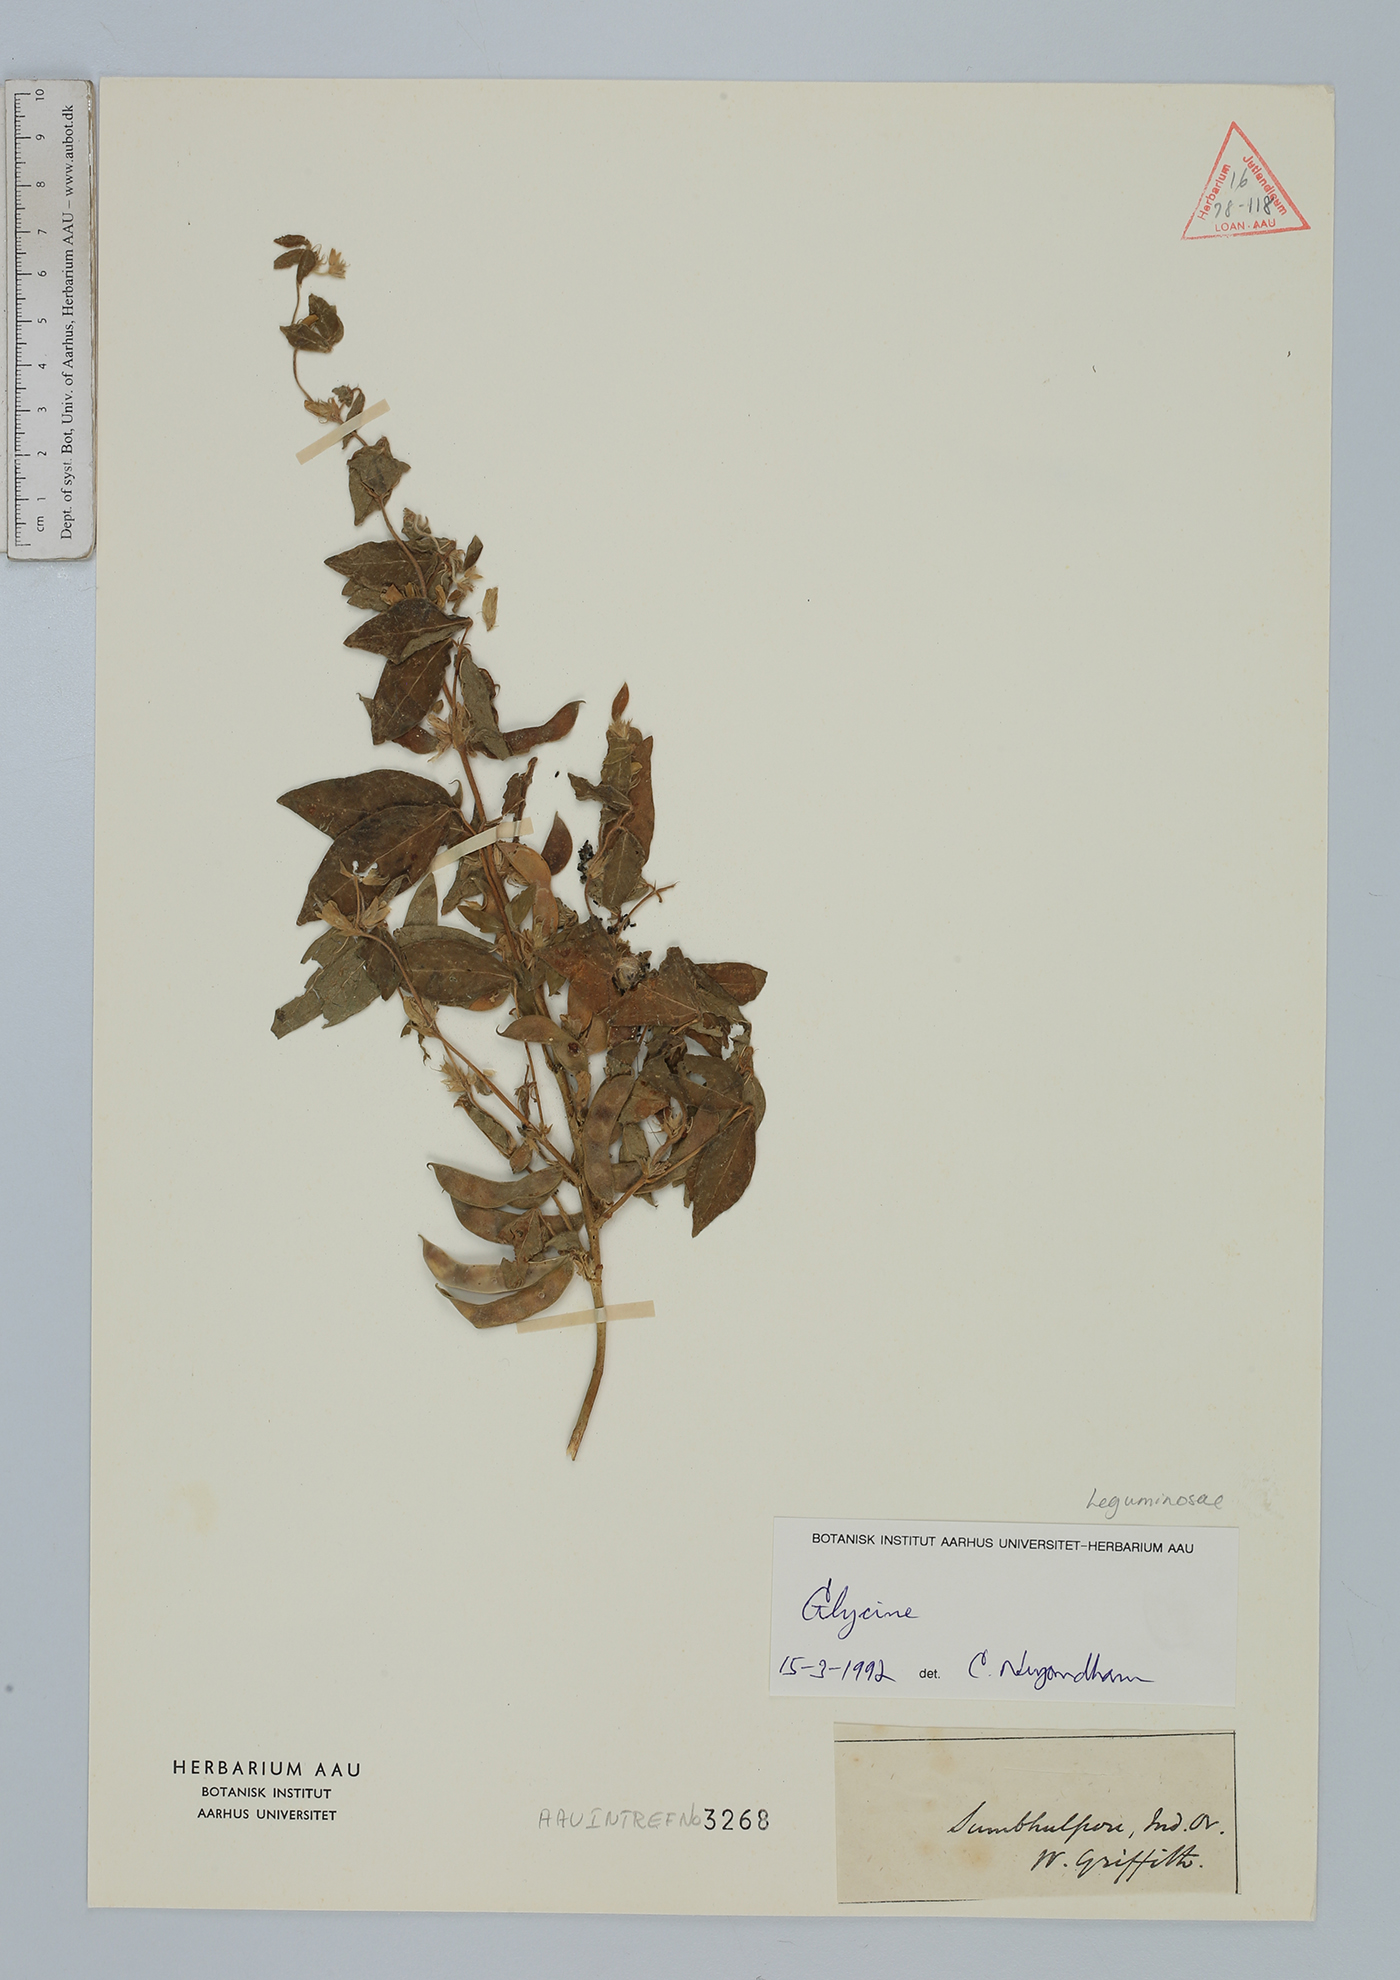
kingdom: Plantae
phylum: Tracheophyta
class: Magnoliopsida
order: Fabales
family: Fabaceae
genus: Glycine
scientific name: Glycine
